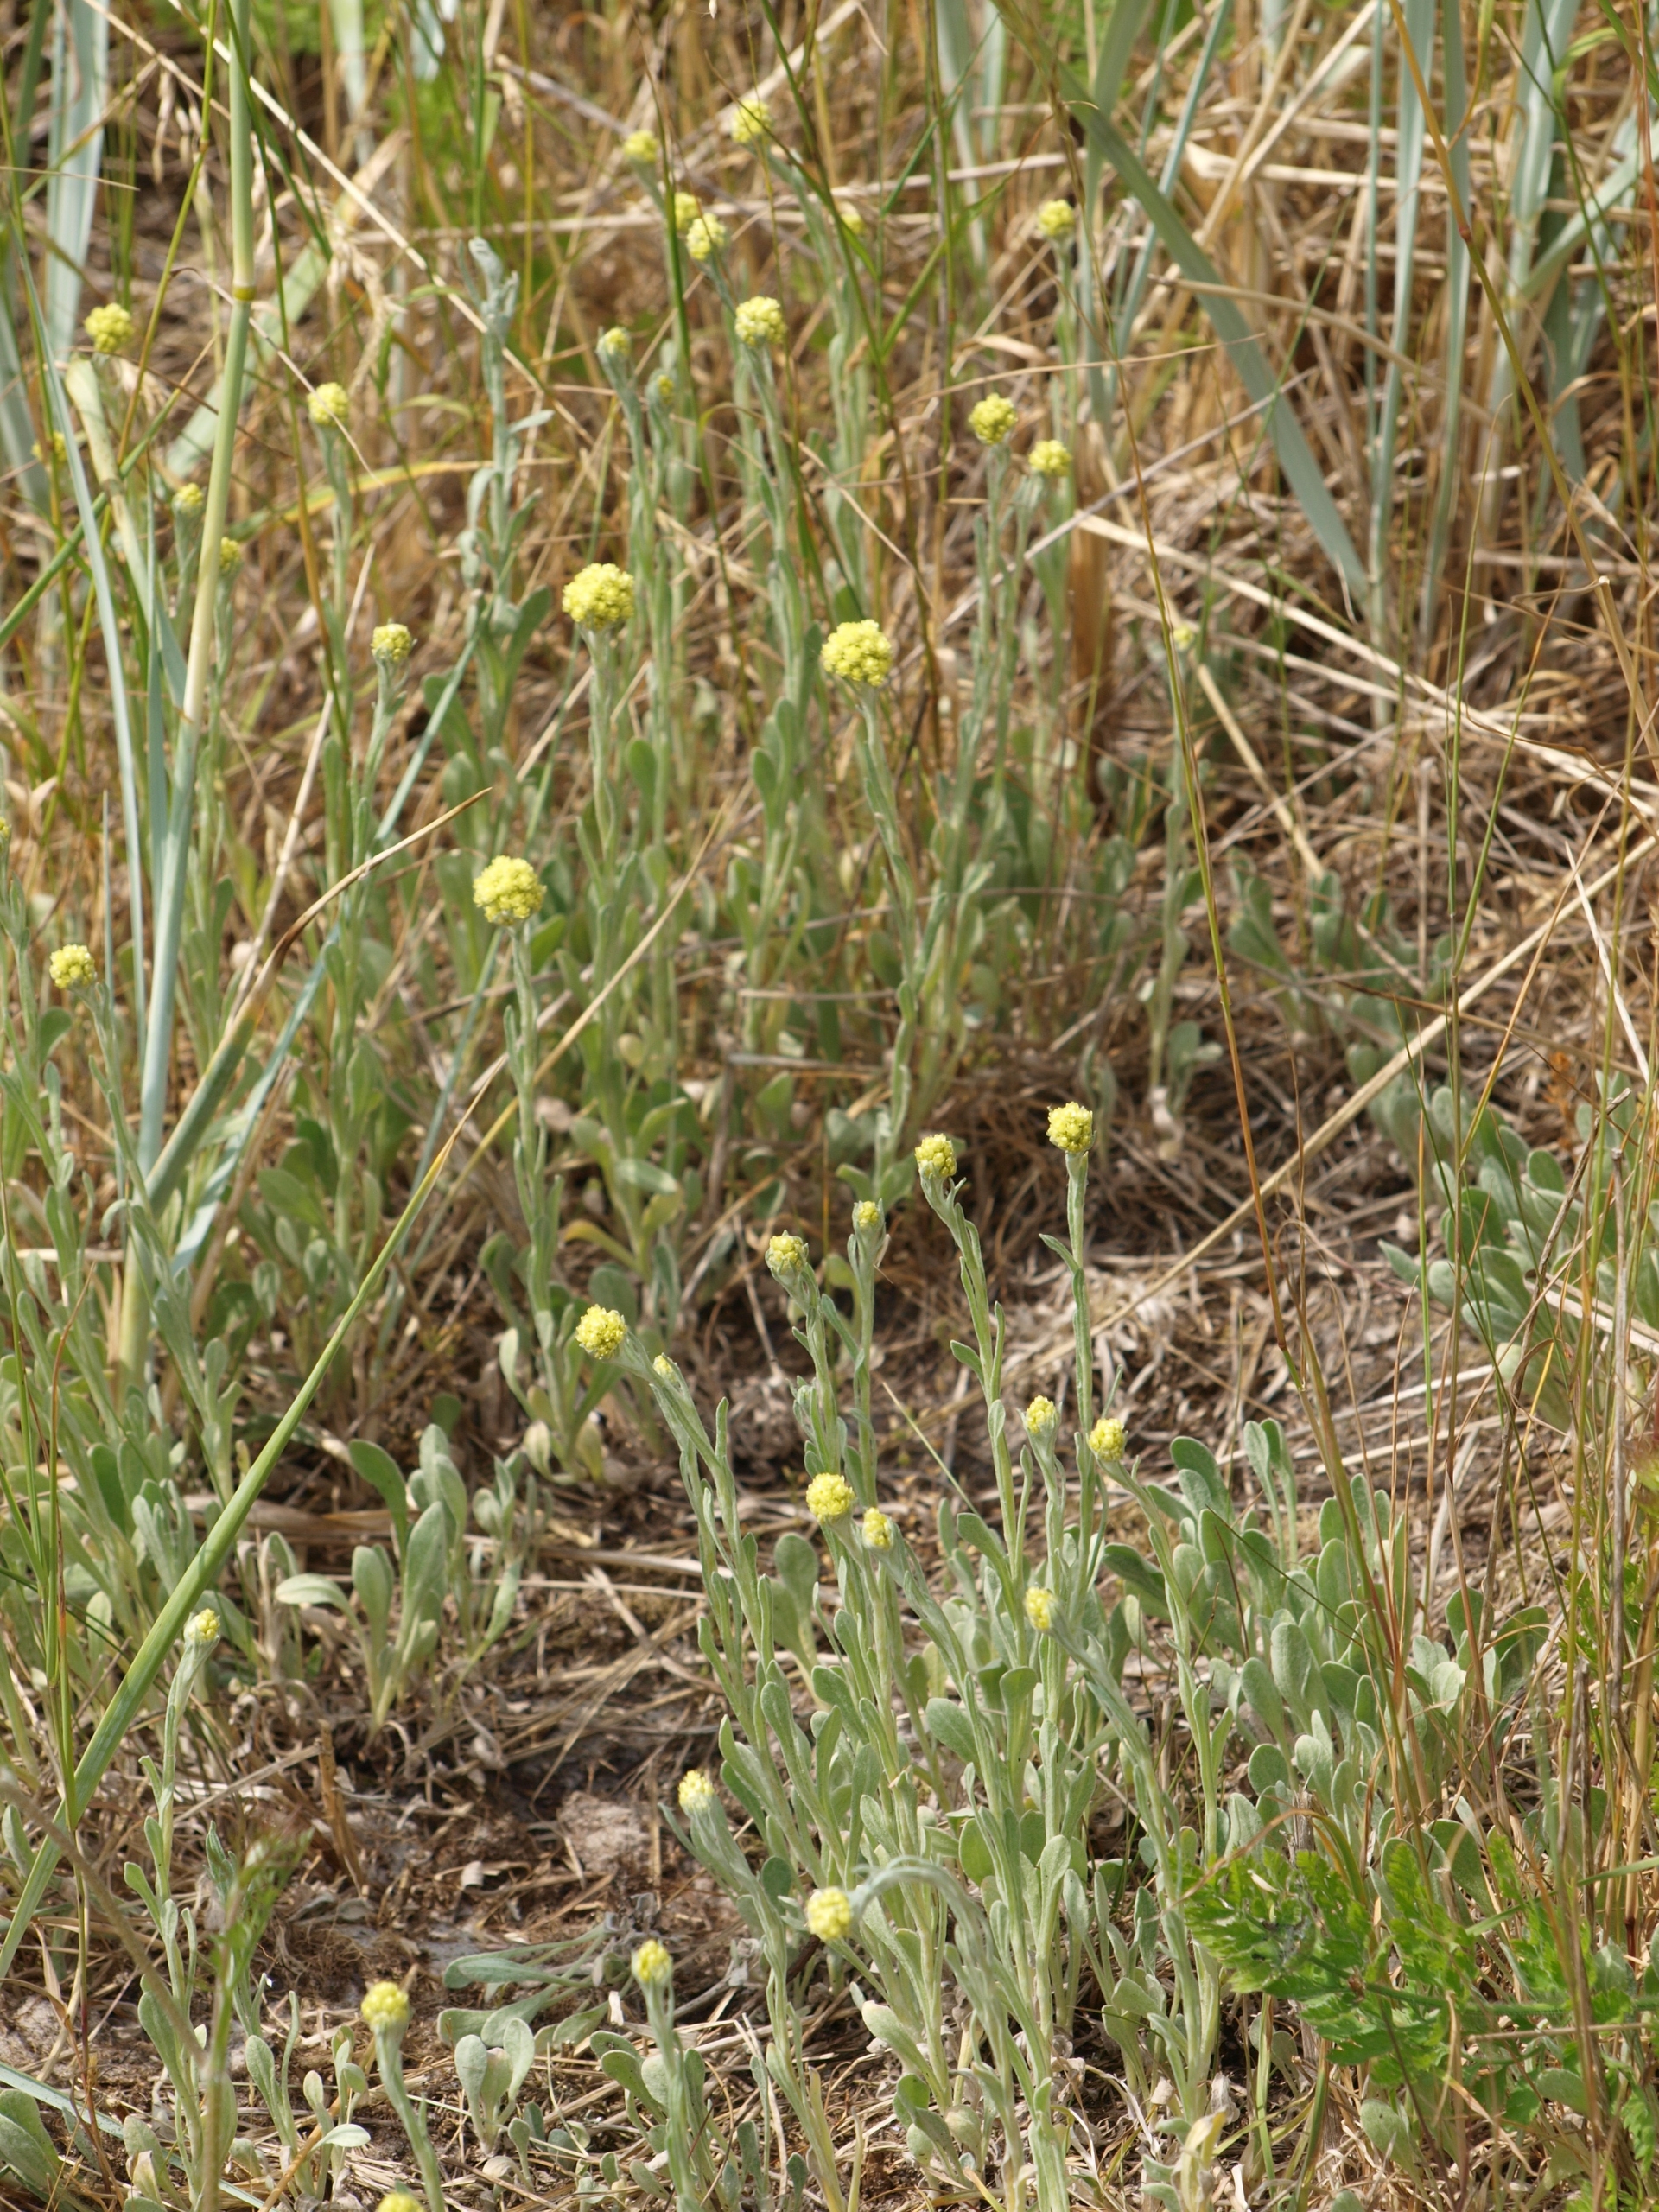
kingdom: Plantae
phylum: Tracheophyta
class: Magnoliopsida
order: Asterales
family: Asteraceae
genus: Helichrysum
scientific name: Helichrysum arenarium
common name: Gul evighedsblomst
